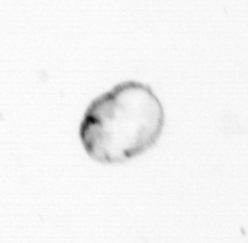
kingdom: Chromista
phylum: Myzozoa
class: Dinophyceae
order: Noctilucales
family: Noctilucaceae
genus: Noctiluca
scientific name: Noctiluca scintillans
